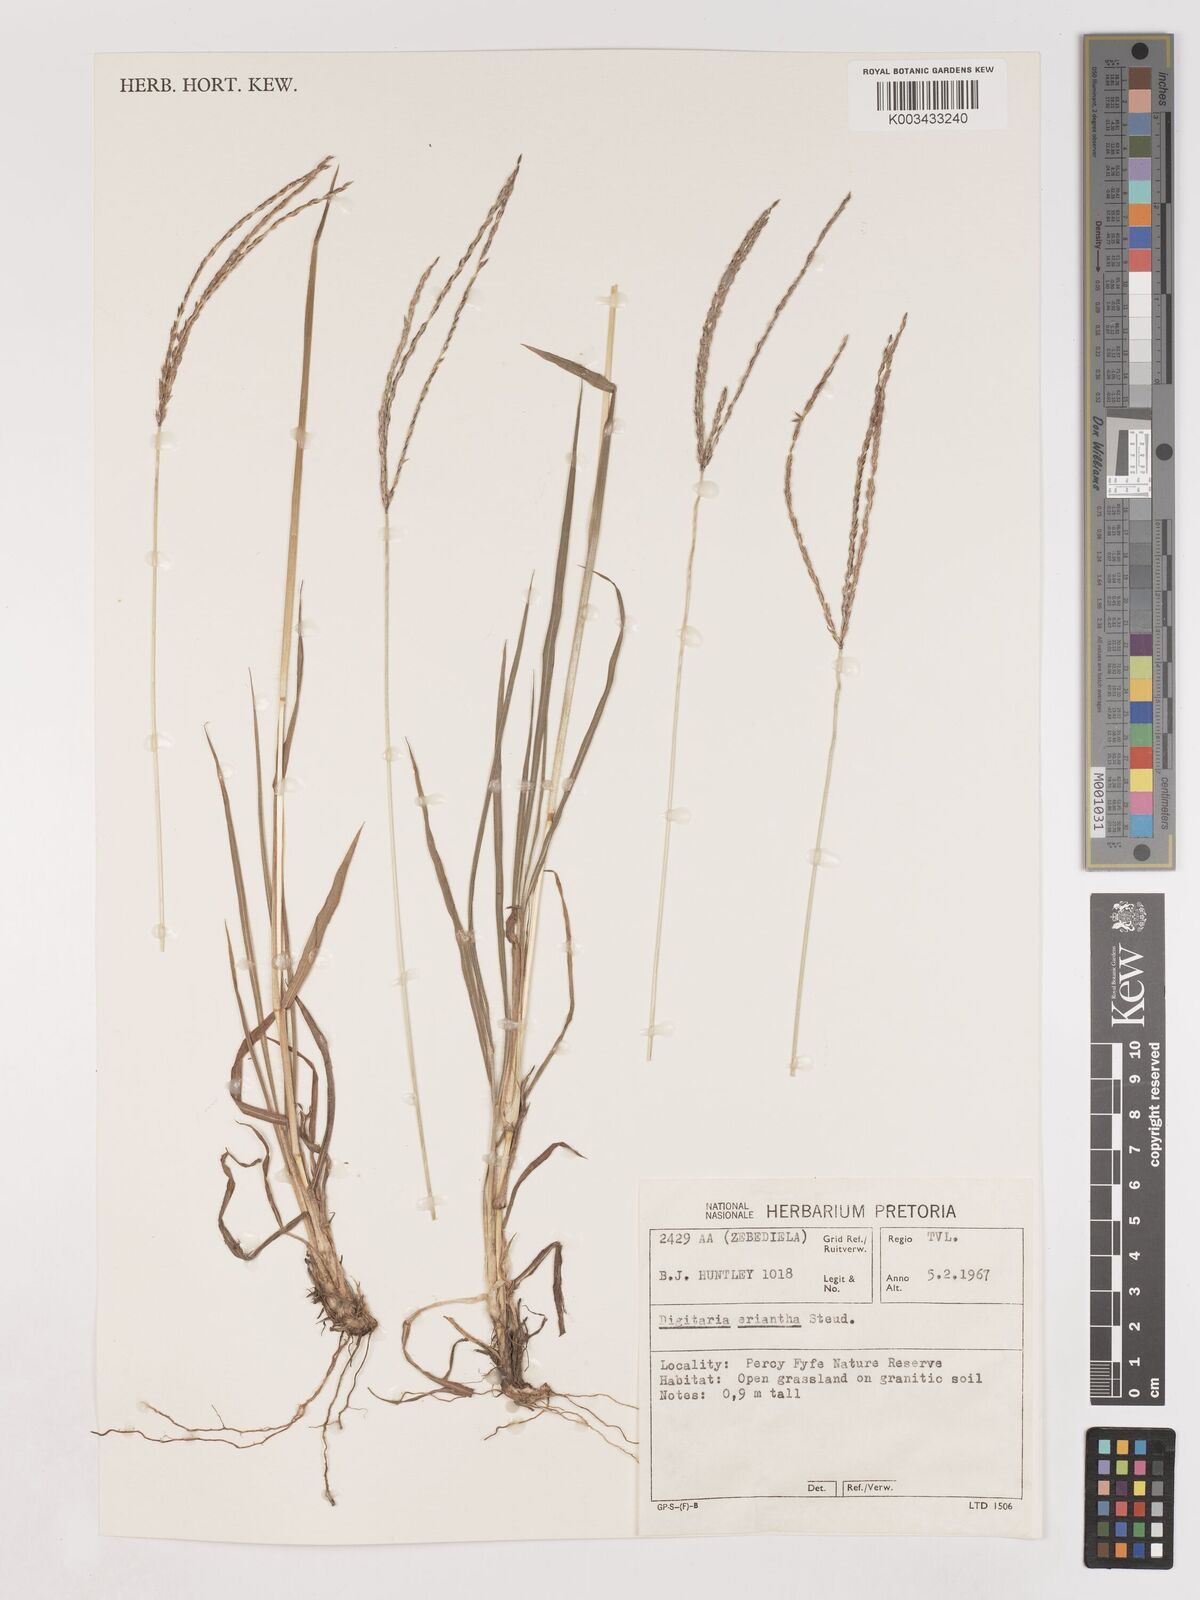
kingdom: Plantae
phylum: Tracheophyta
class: Liliopsida
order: Poales
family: Poaceae
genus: Digitaria
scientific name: Digitaria eriantha
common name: Digitgrass
